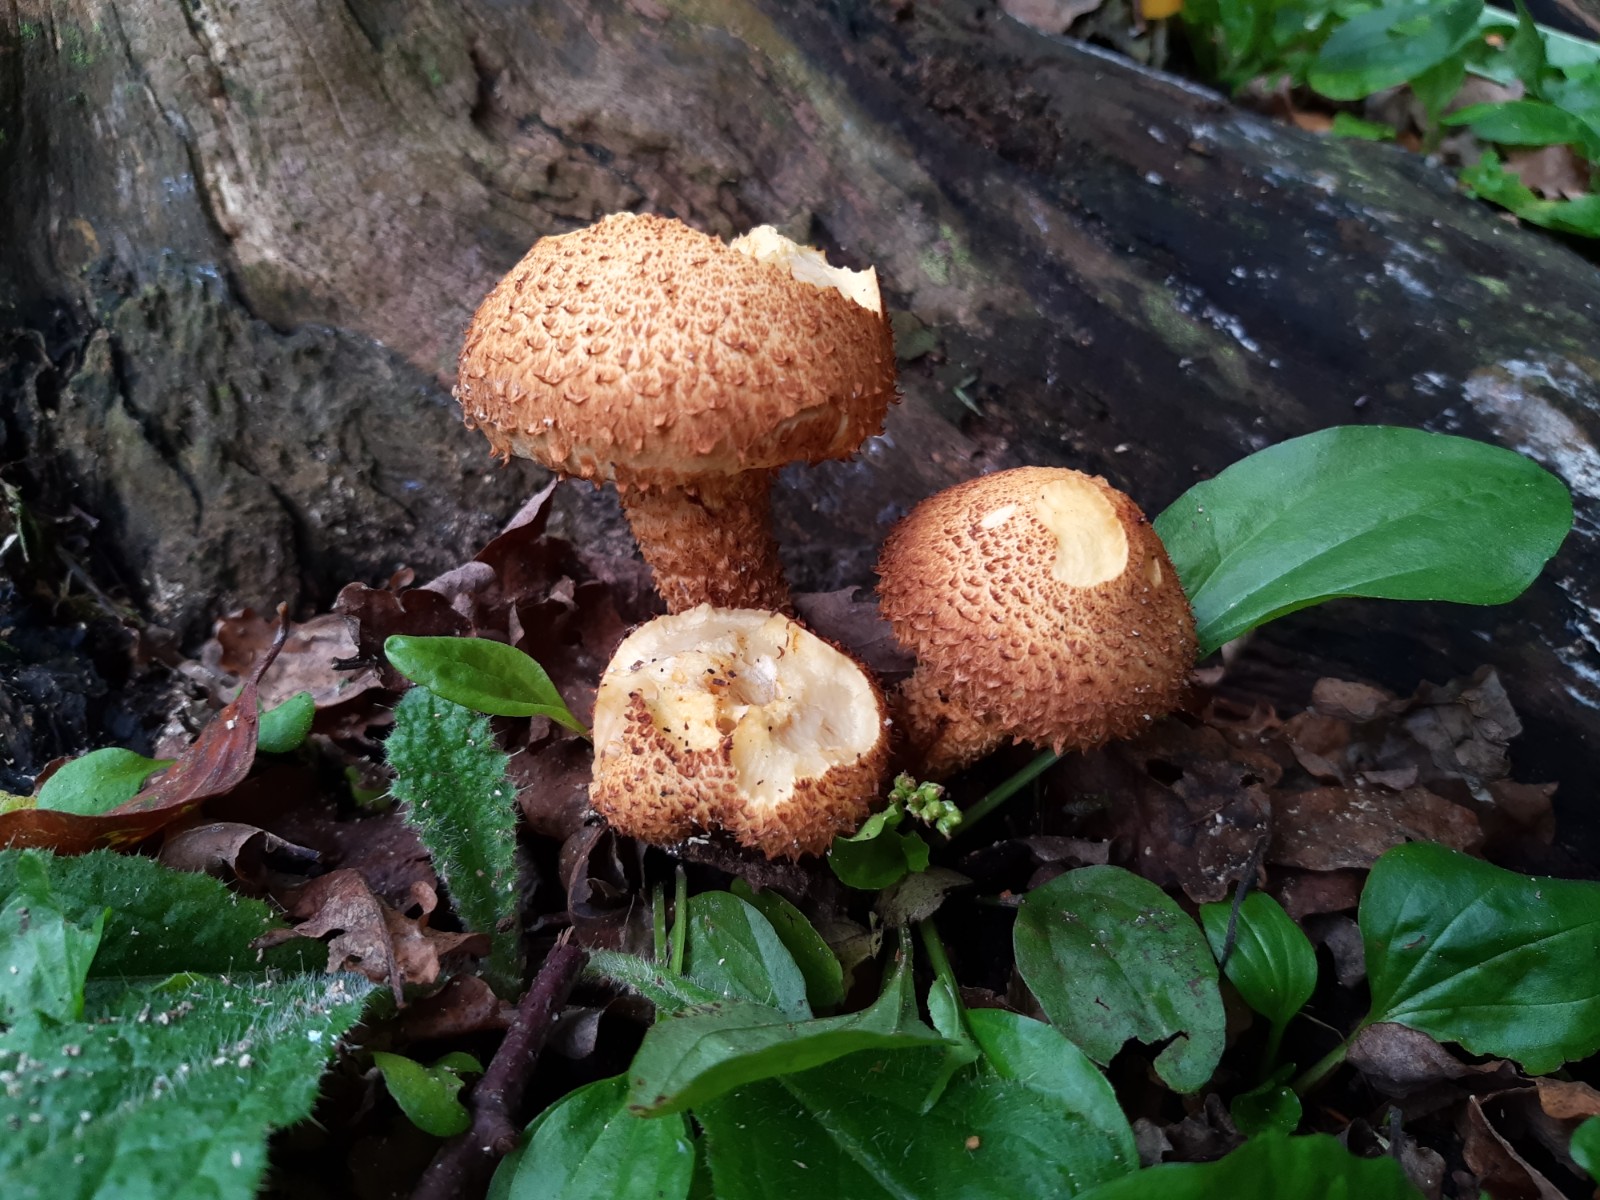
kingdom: Fungi
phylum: Basidiomycota
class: Agaricomycetes
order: Agaricales
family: Strophariaceae
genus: Pholiota
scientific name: Pholiota squarrosa
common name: krumskællet skælhat
